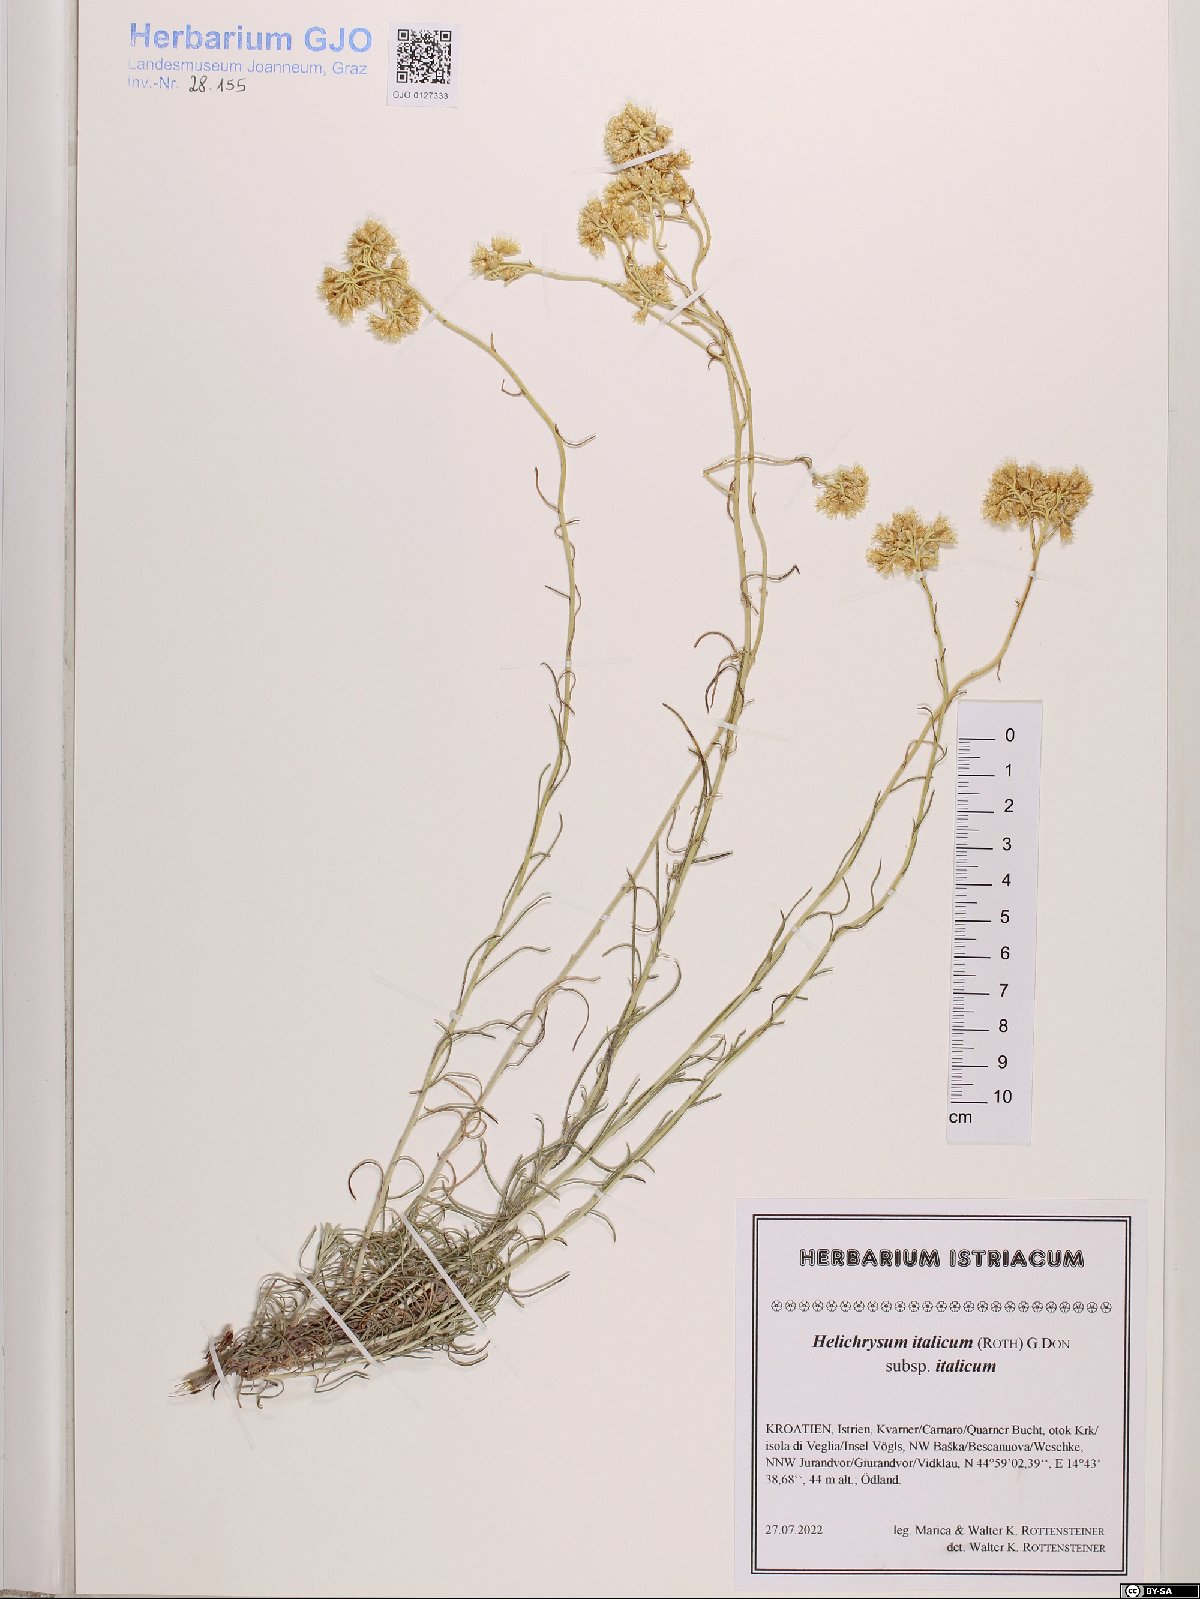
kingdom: Plantae
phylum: Tracheophyta
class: Magnoliopsida
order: Asterales
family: Asteraceae
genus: Helichrysum
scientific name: Helichrysum italicum
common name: Curryplant
